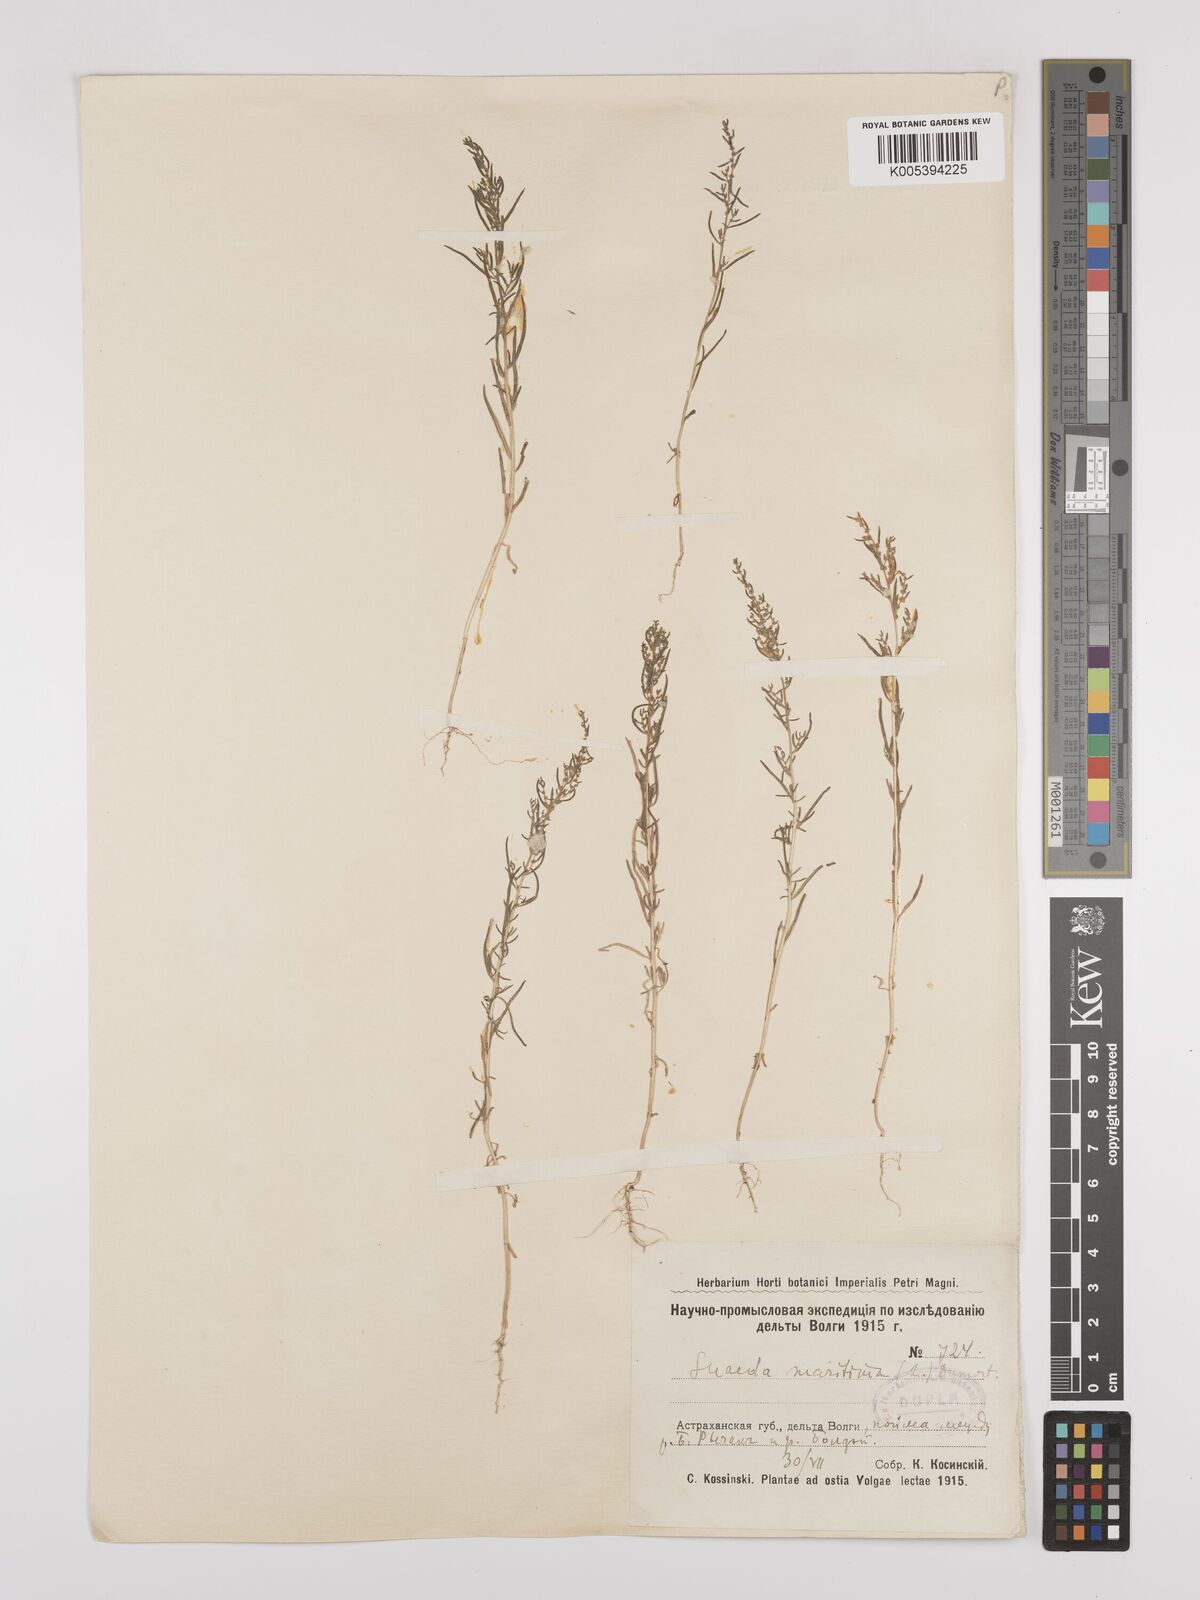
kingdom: Plantae
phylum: Tracheophyta
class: Magnoliopsida
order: Caryophyllales
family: Amaranthaceae
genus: Suaeda
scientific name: Suaeda
